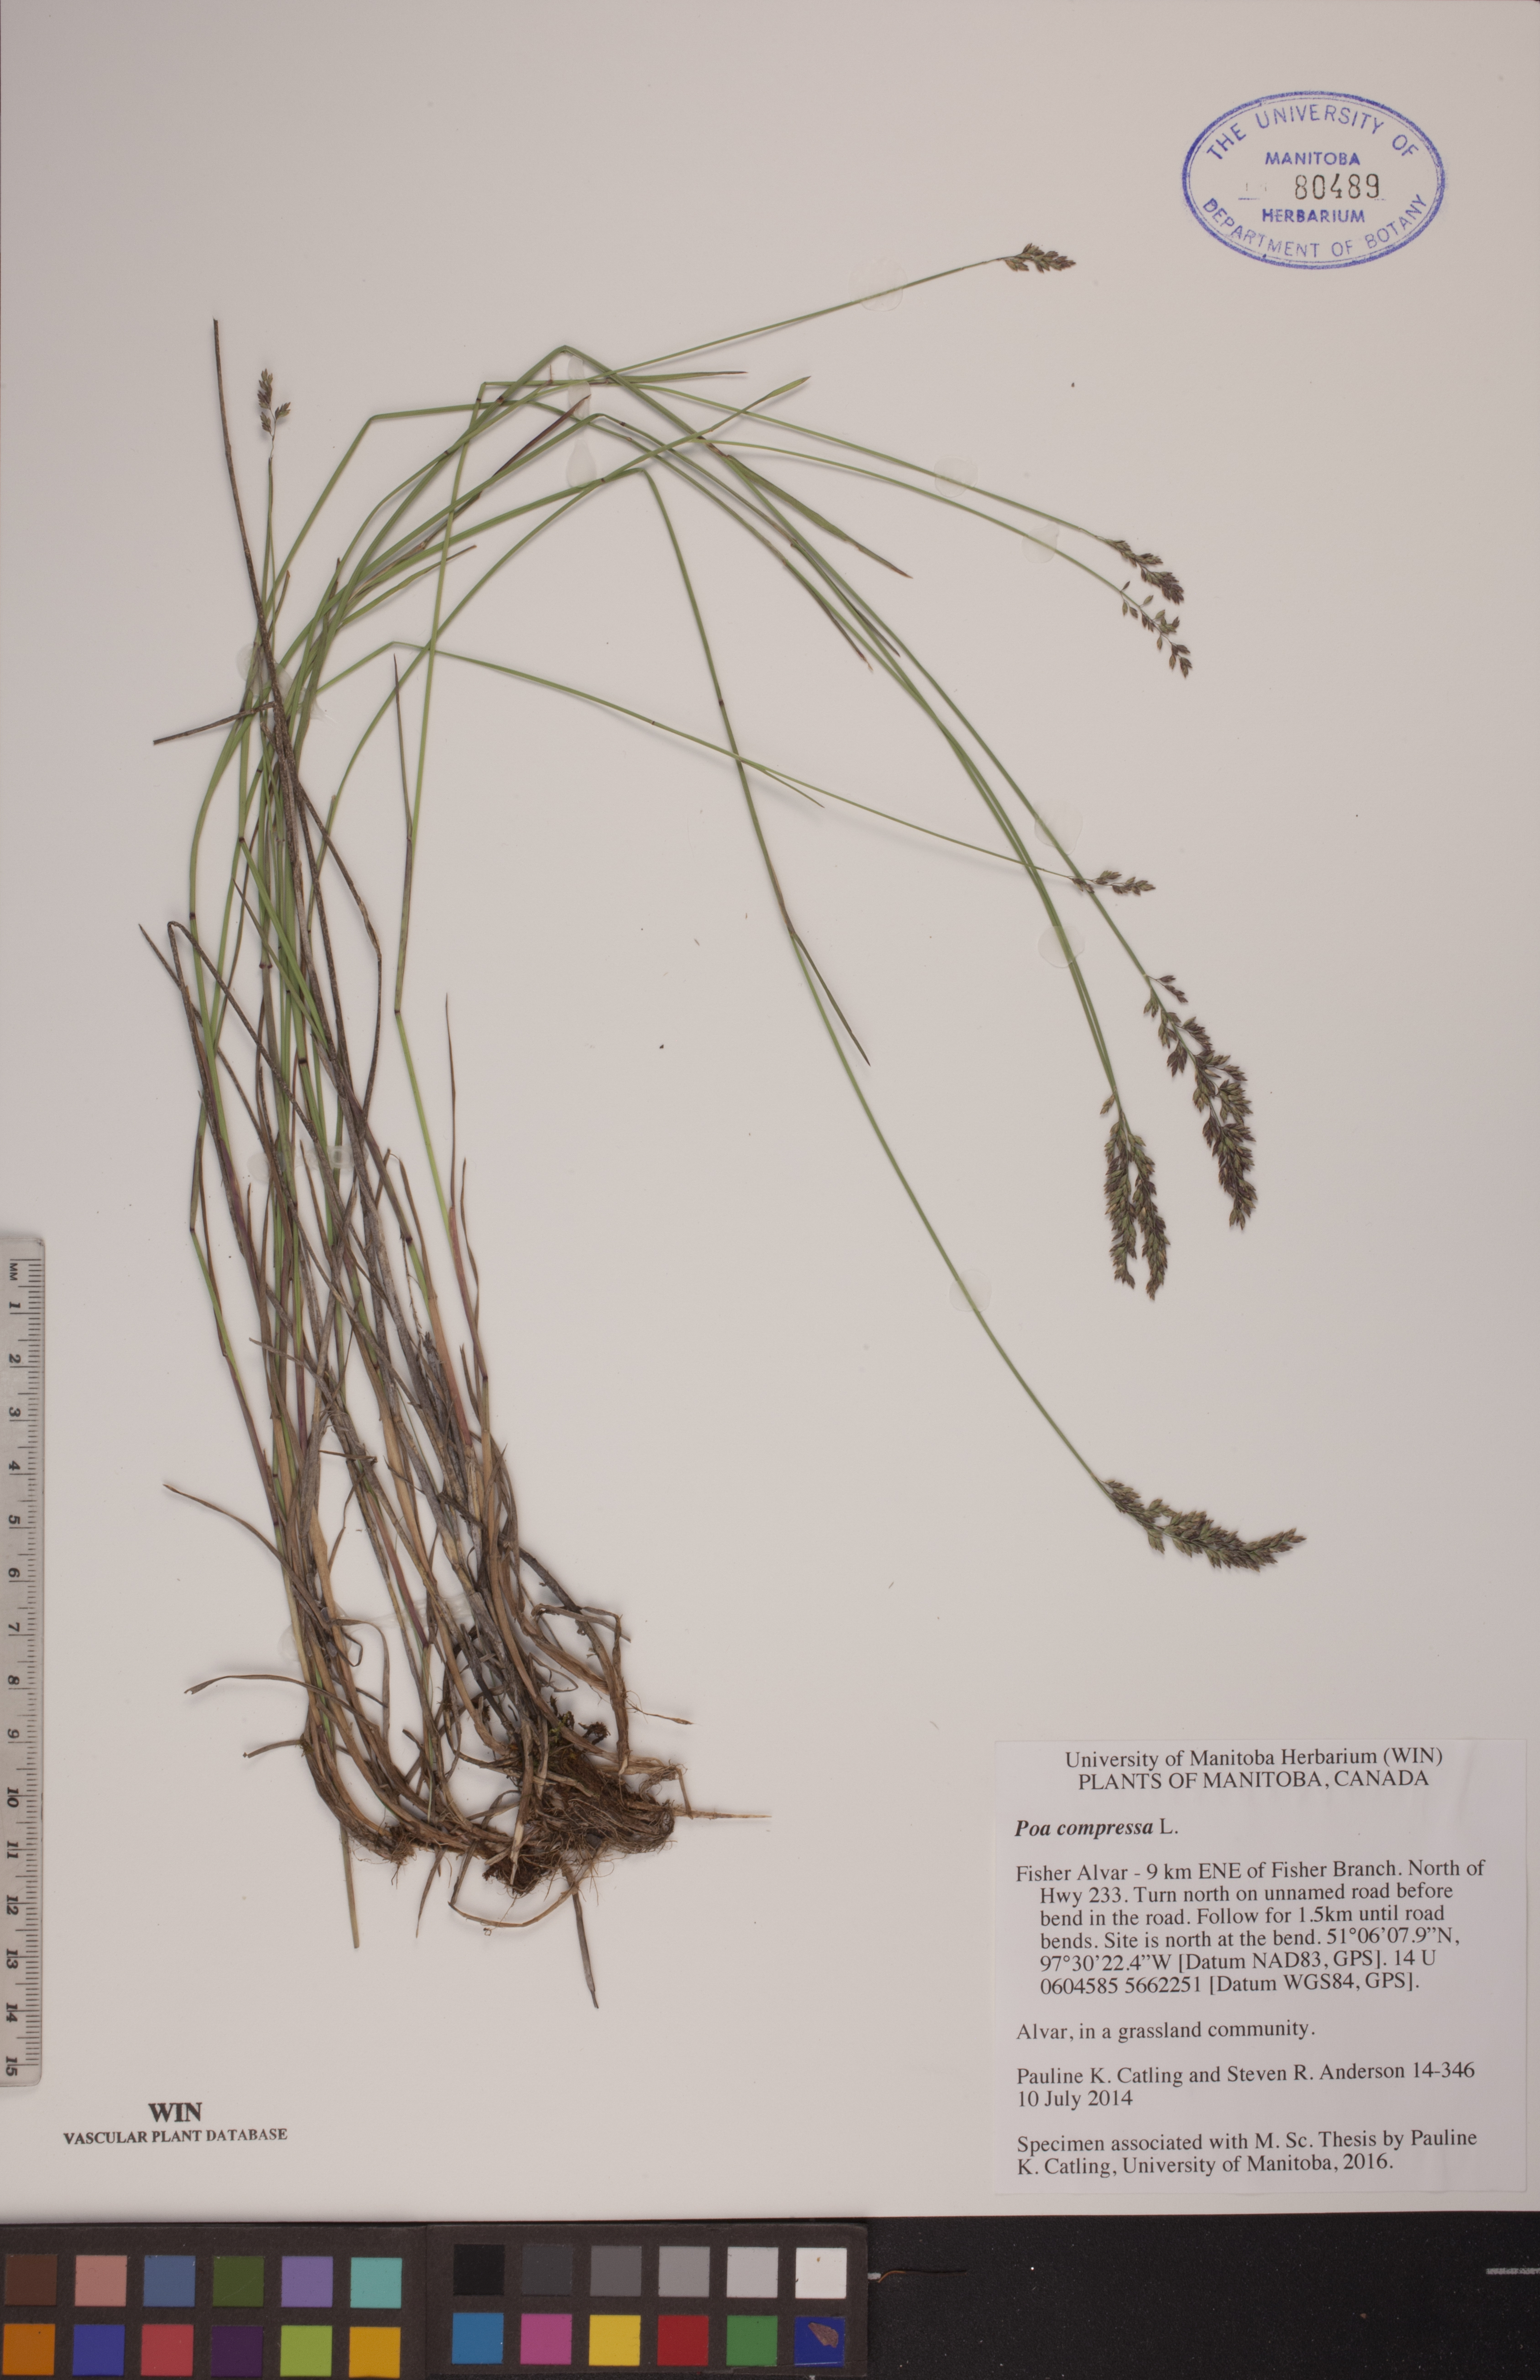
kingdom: Plantae
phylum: Tracheophyta
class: Liliopsida
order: Poales
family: Poaceae
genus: Poa
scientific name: Poa compressa
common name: Canada bluegrass
